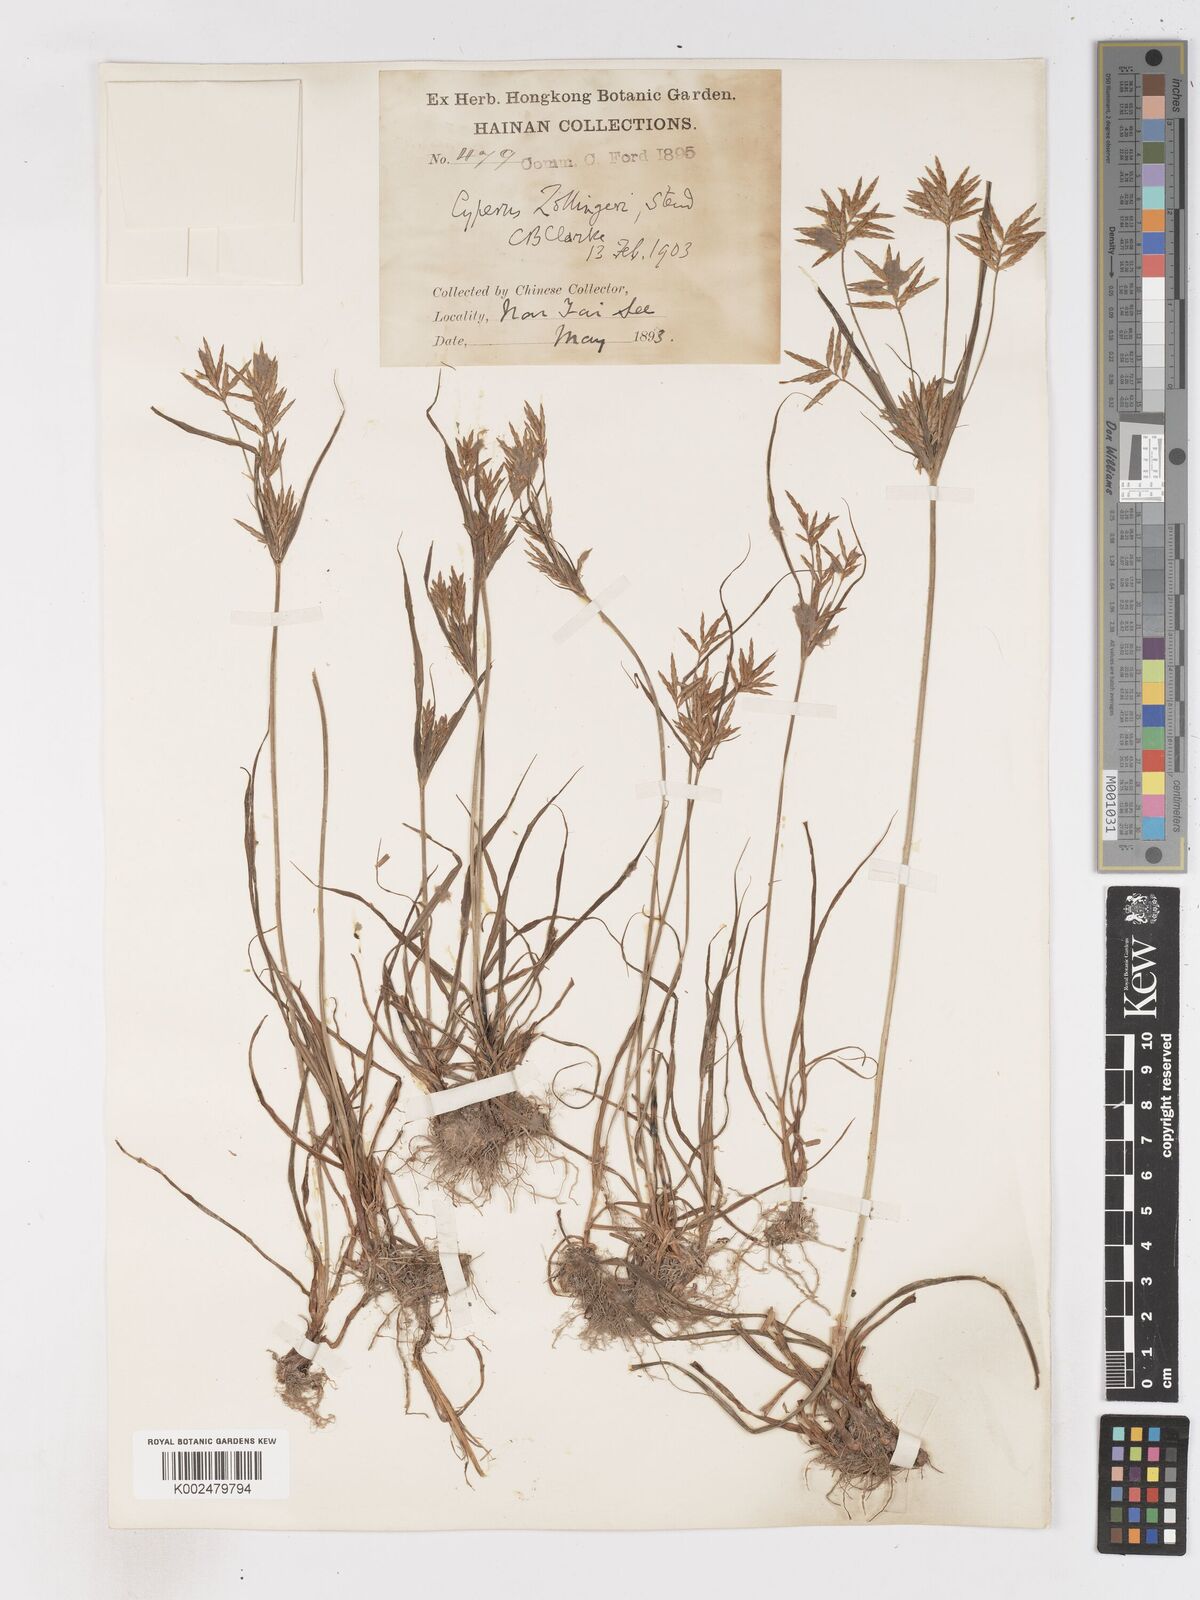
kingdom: Plantae
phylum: Tracheophyta
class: Liliopsida
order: Poales
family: Cyperaceae
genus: Cyperus
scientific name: Cyperus tenuiculmis
